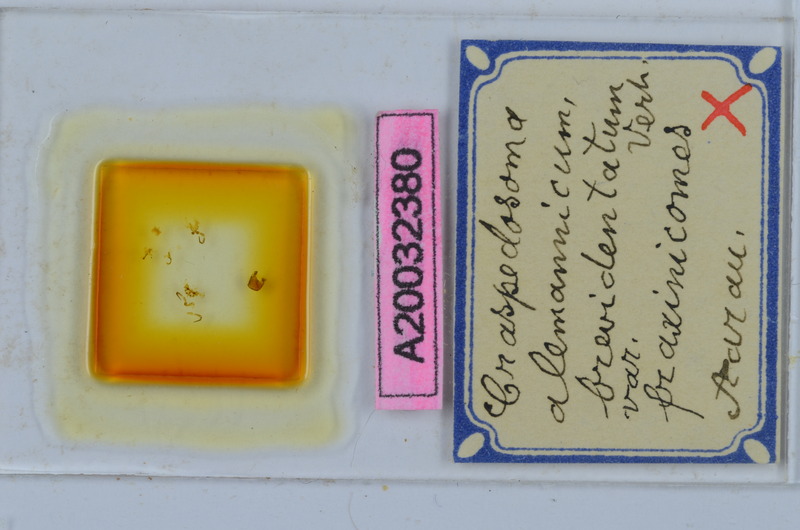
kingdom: Animalia
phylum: Arthropoda
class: Diplopoda
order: Chordeumatida
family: Craspedosomatidae
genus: Craspedosoma
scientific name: Craspedosoma rawlinsii
